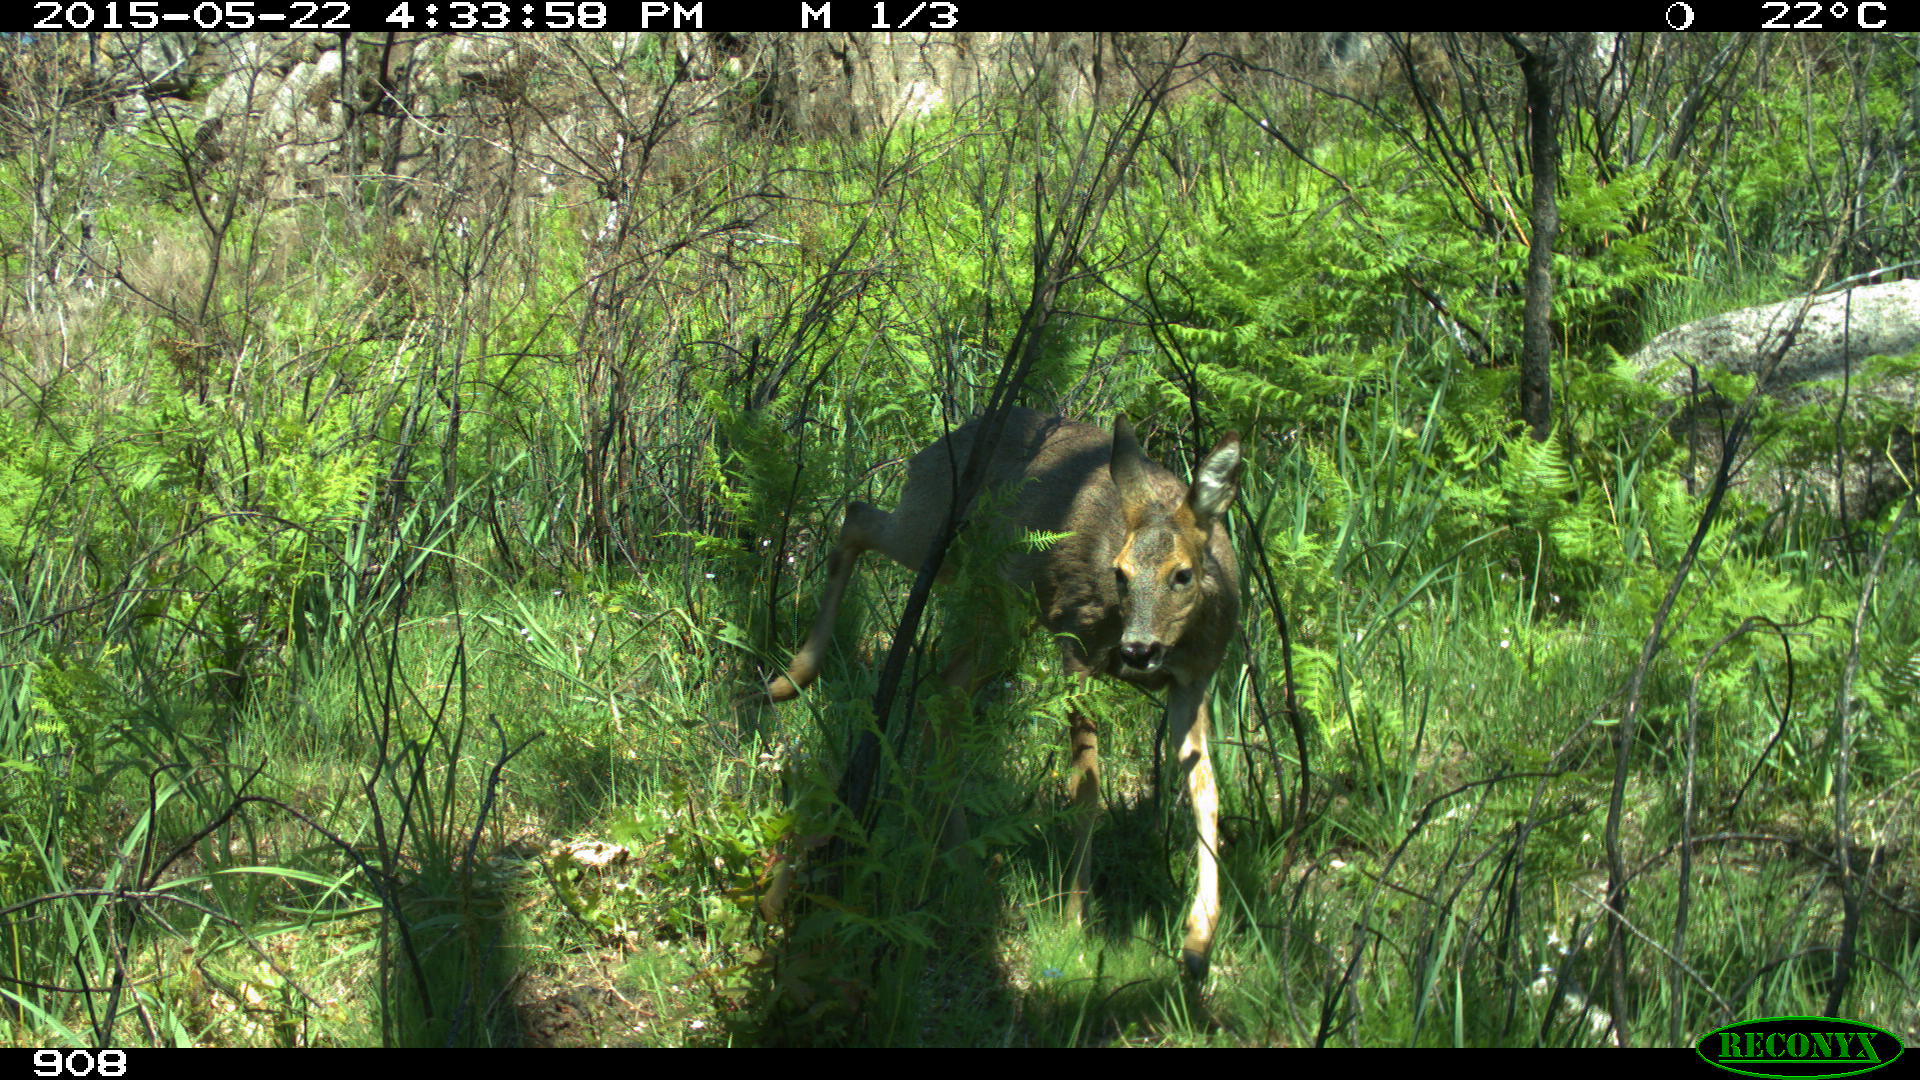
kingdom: Animalia
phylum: Chordata
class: Mammalia
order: Artiodactyla
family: Cervidae
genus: Capreolus
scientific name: Capreolus capreolus
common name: Western roe deer
